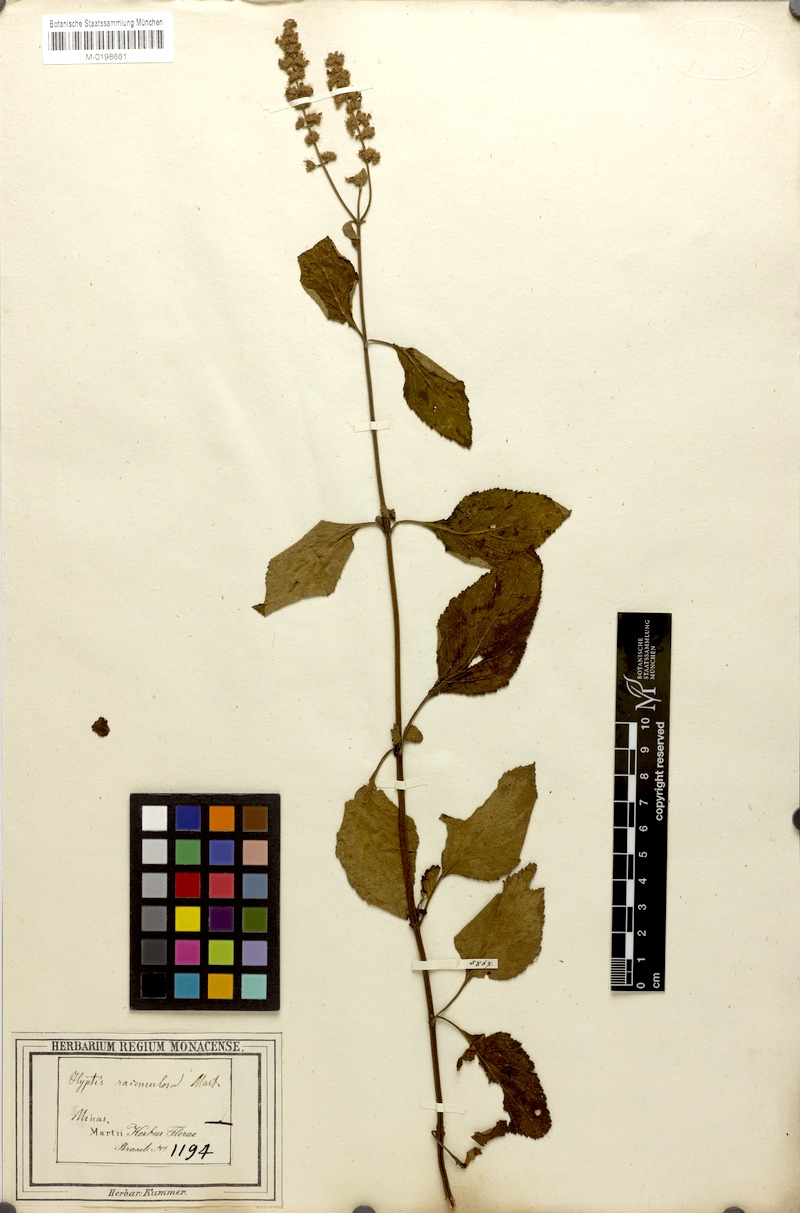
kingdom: Plantae
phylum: Tracheophyta
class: Magnoliopsida
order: Lamiales
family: Lamiaceae
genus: Cantinoa
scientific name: Cantinoa racemulosa
